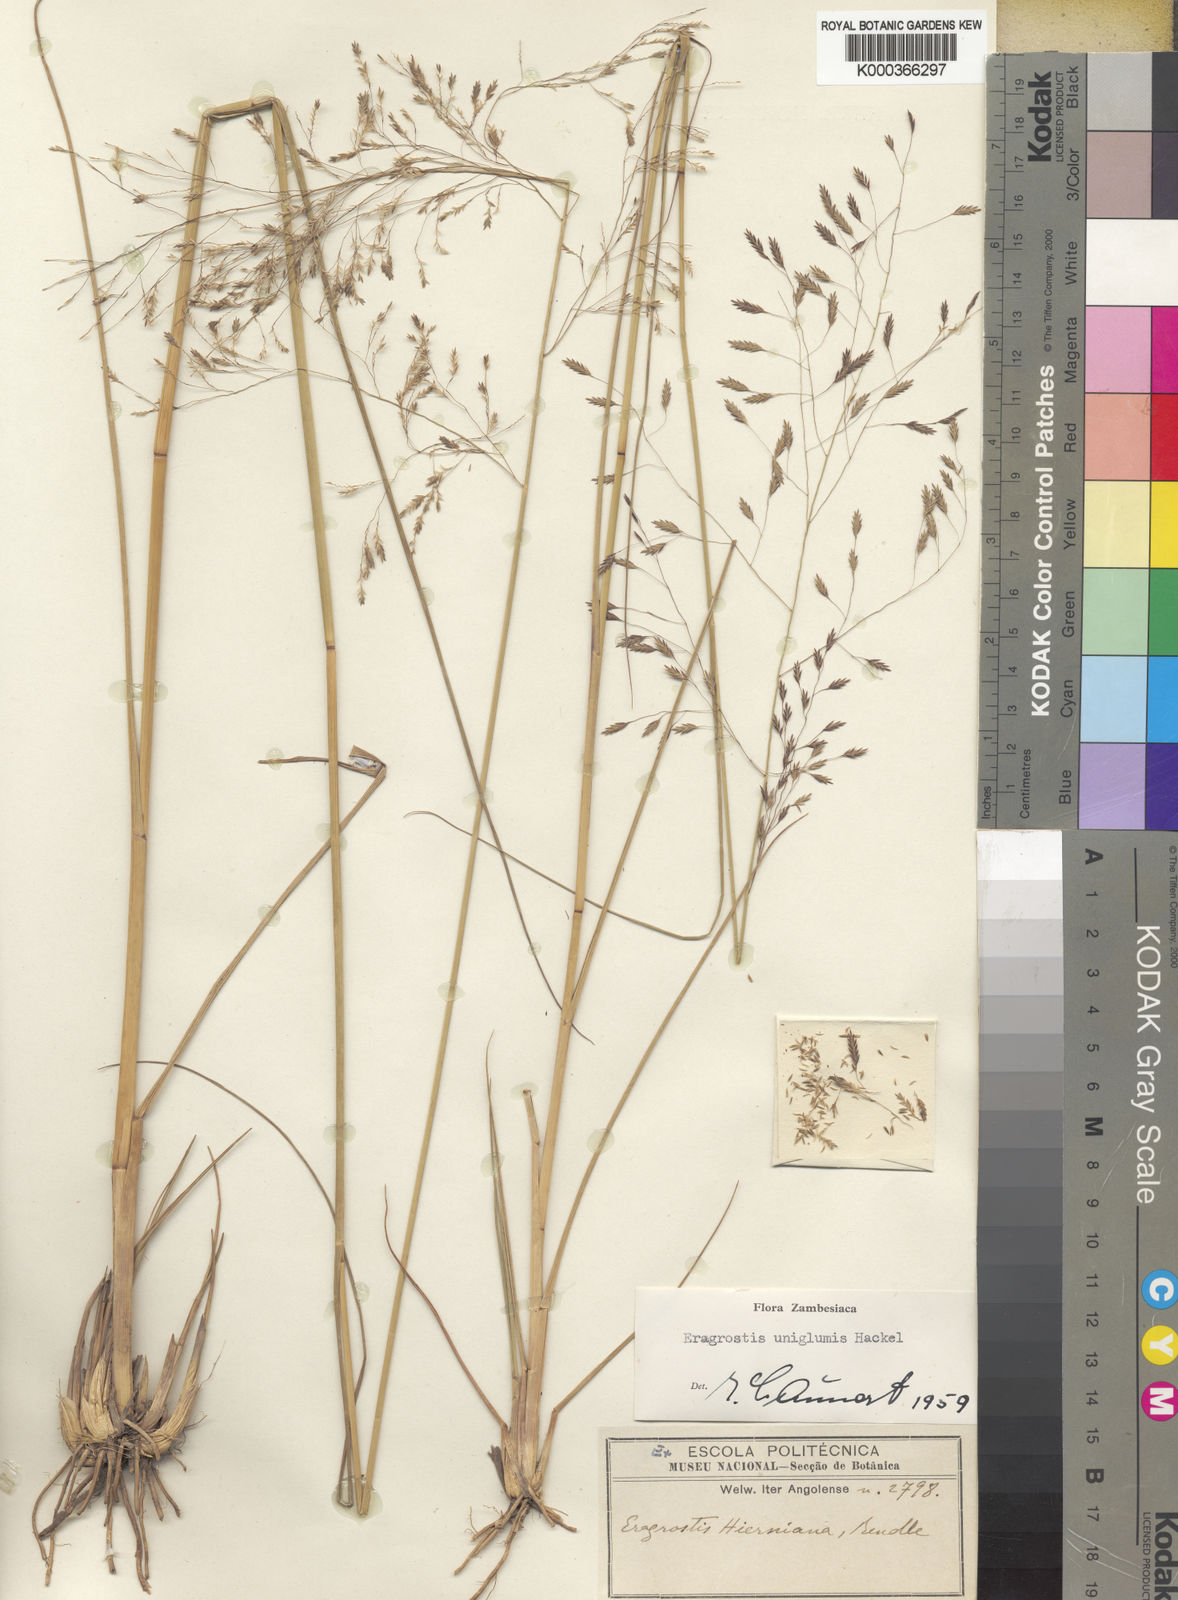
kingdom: Plantae
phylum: Tracheophyta
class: Liliopsida
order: Poales
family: Poaceae
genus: Eragrostis
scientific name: Eragrostis hierniana
